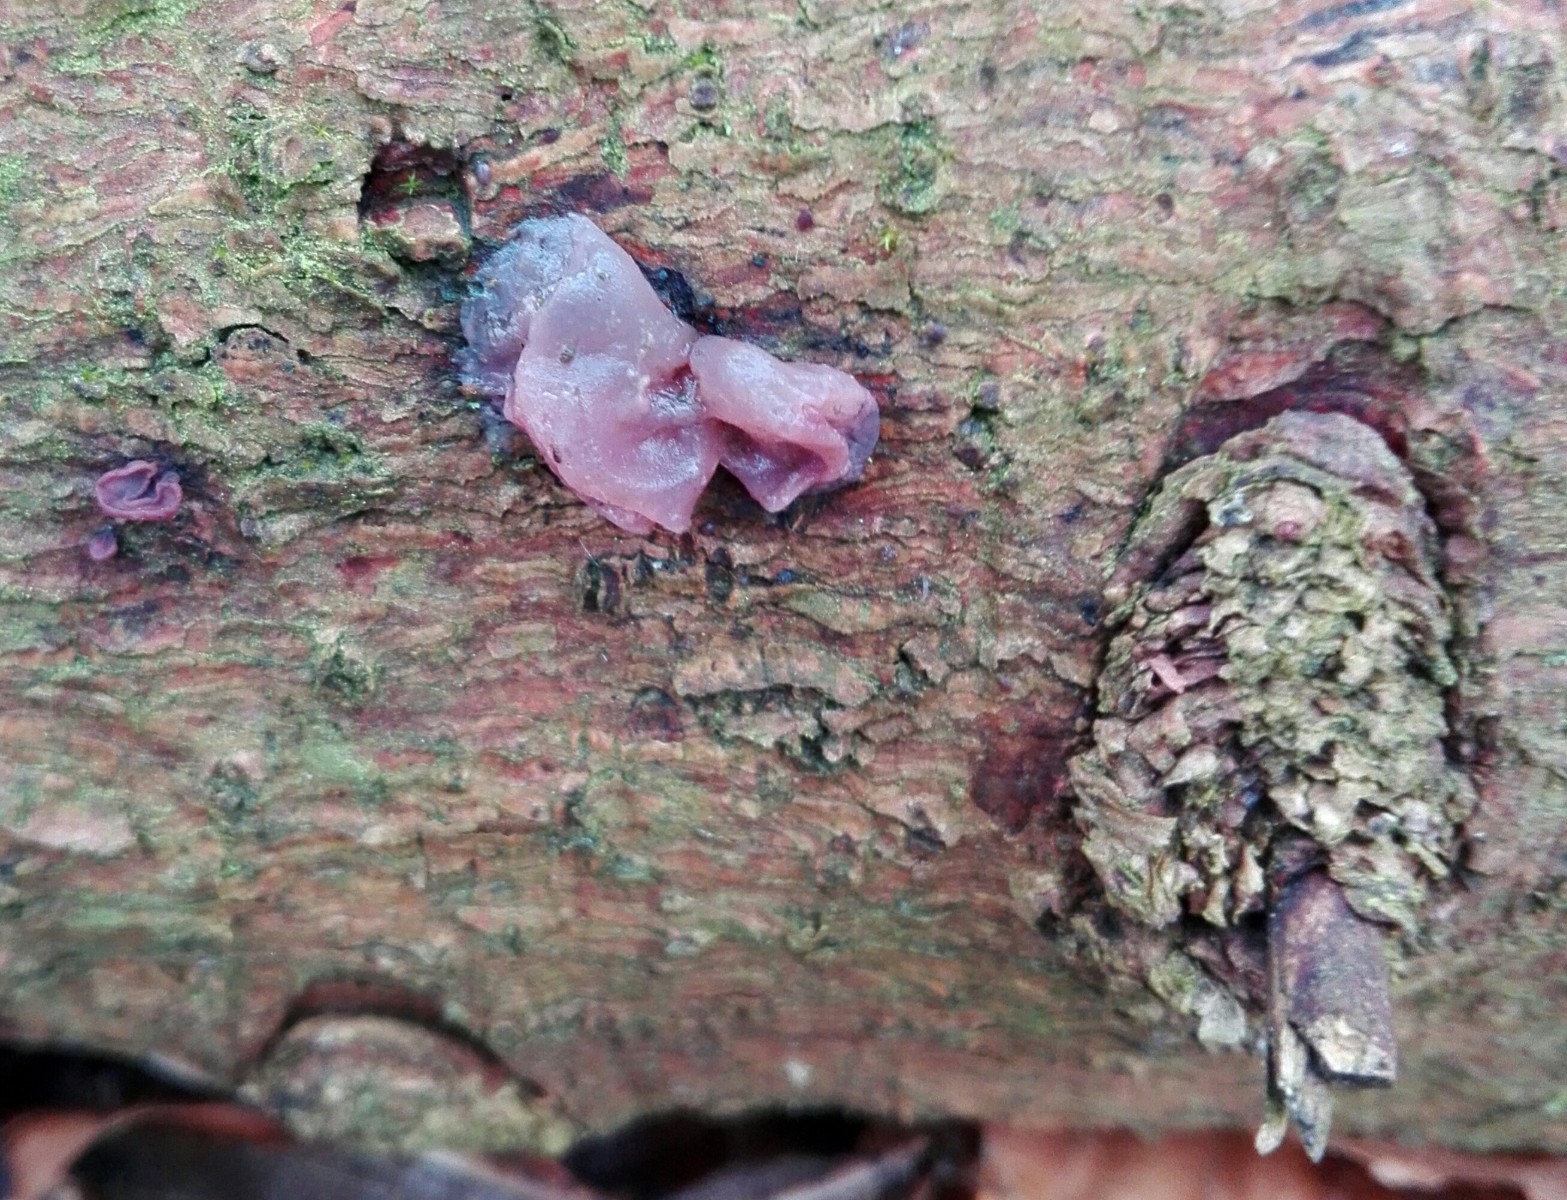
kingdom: Fungi
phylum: Ascomycota
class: Leotiomycetes
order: Helotiales
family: Gelatinodiscaceae
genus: Ascocoryne
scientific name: Ascocoryne
